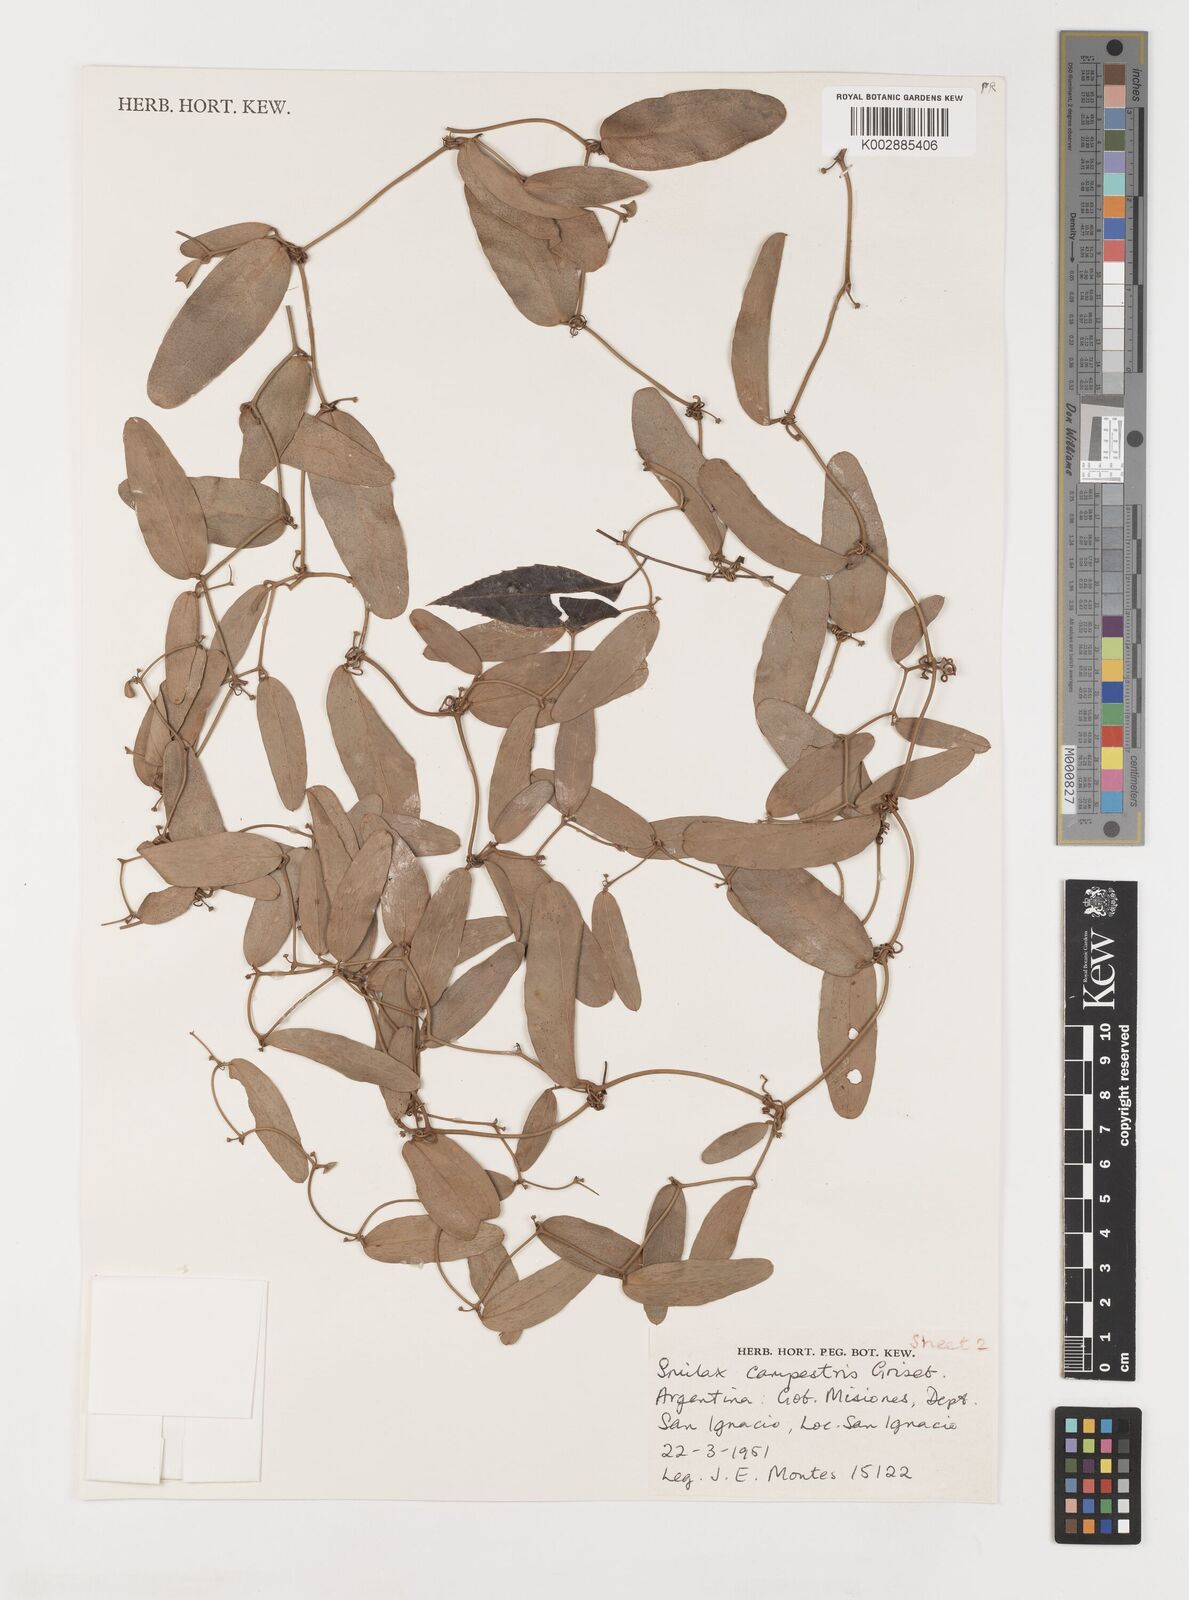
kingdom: Plantae
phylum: Tracheophyta
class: Liliopsida
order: Liliales
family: Smilacaceae
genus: Smilax
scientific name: Smilax campestris
